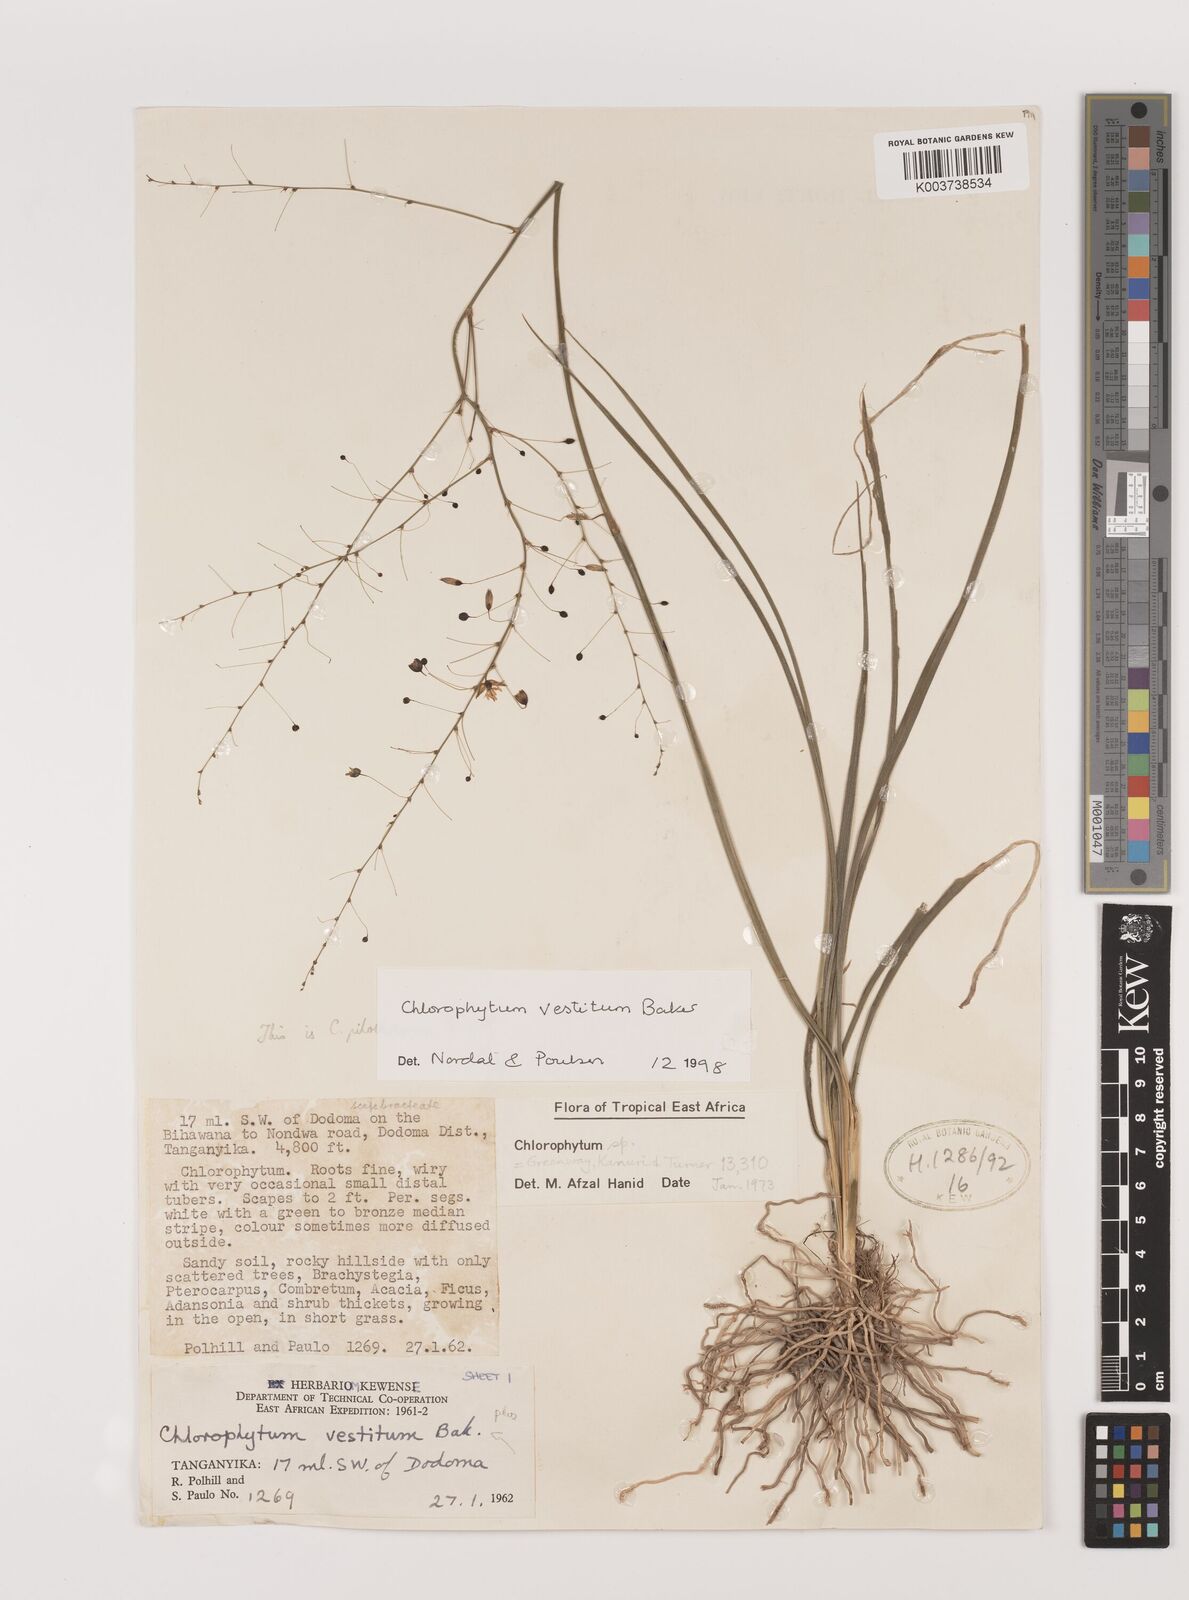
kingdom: Plantae
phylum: Tracheophyta
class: Liliopsida
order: Asparagales
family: Asparagaceae
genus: Chlorophytum
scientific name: Chlorophytum vestitum
